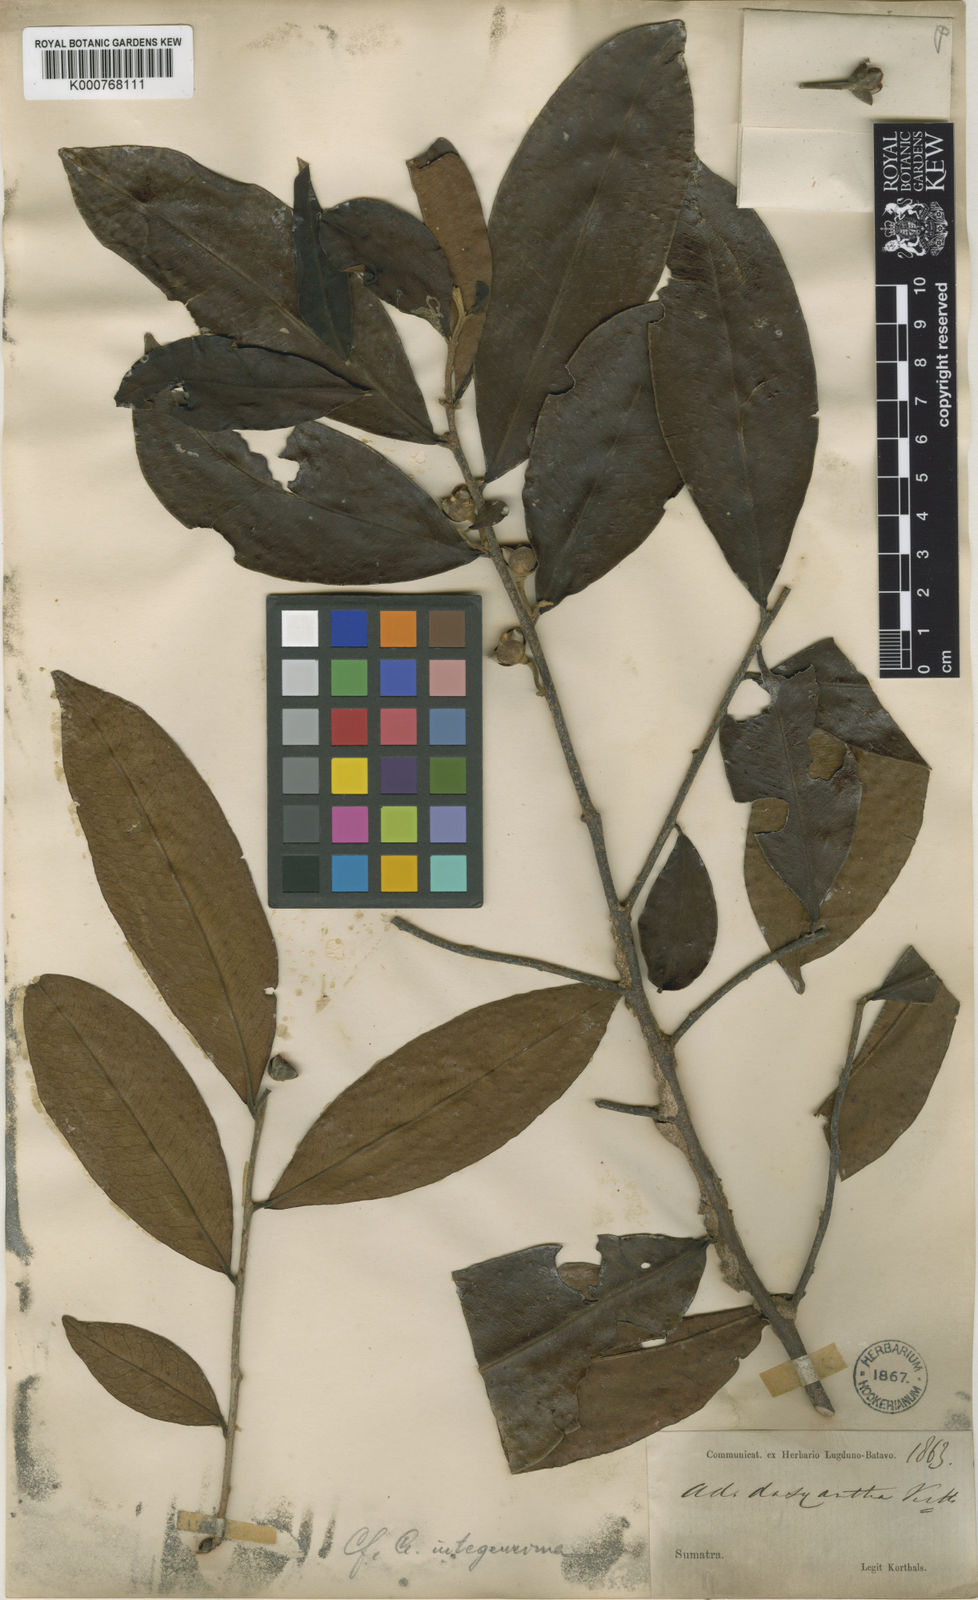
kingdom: Plantae
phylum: Tracheophyta
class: Magnoliopsida
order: Ericales
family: Pentaphylacaceae
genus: Adinandra
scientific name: Adinandra dasyantha
